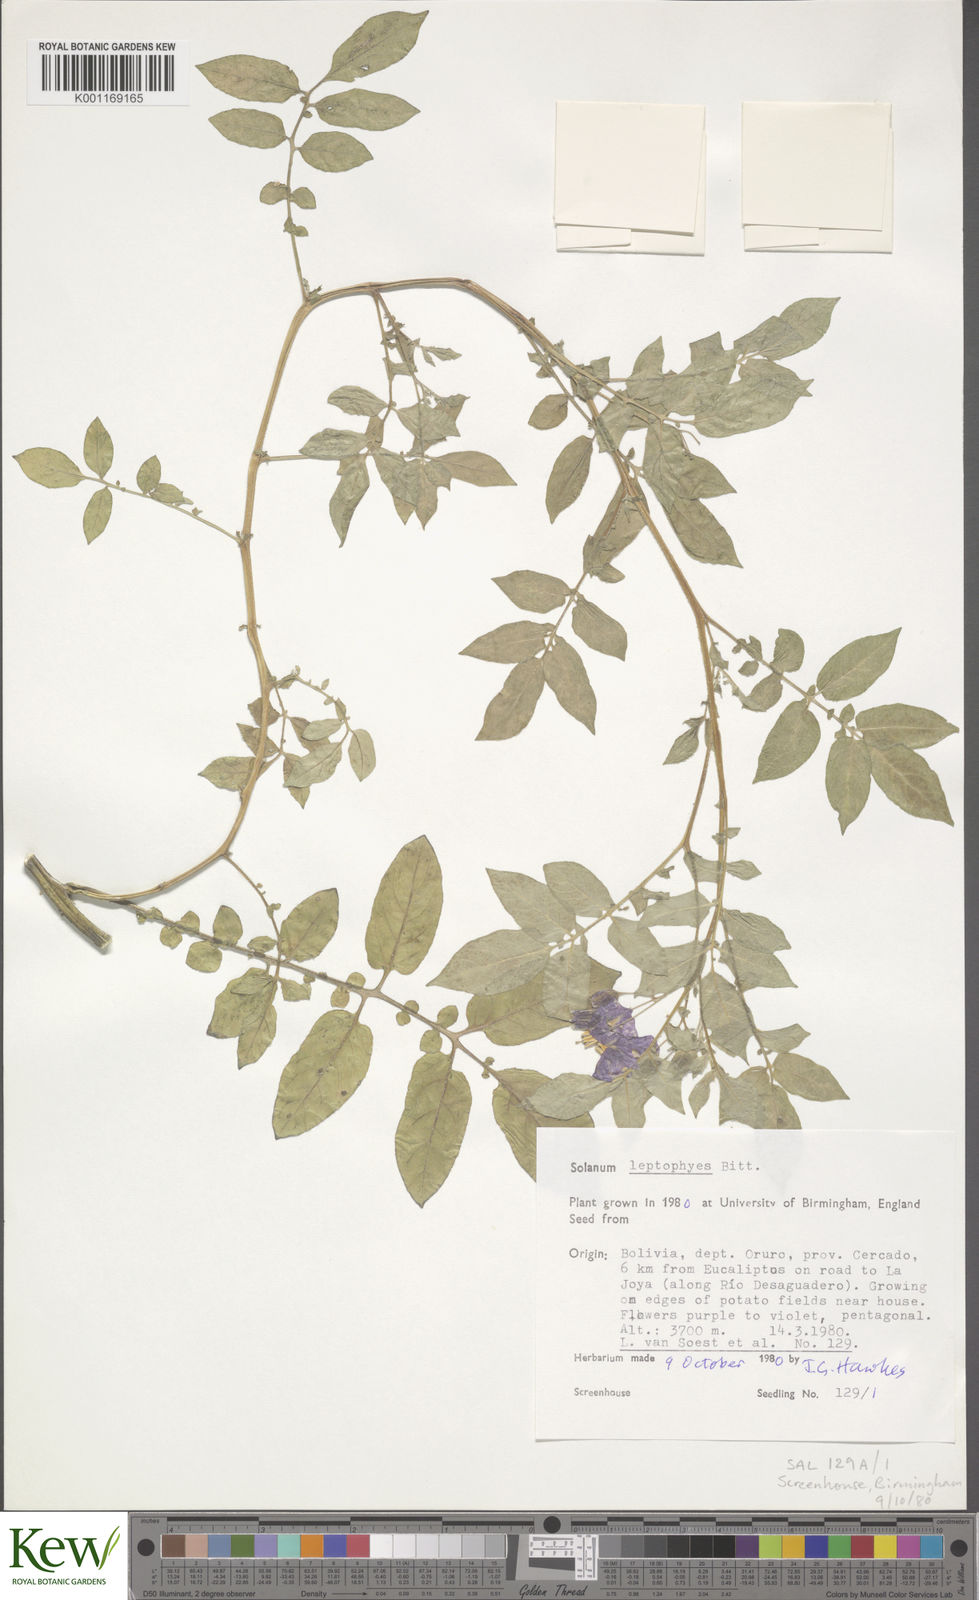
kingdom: Plantae
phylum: Tracheophyta
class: Magnoliopsida
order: Solanales
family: Solanaceae
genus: Solanum
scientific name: Solanum brevicaule
